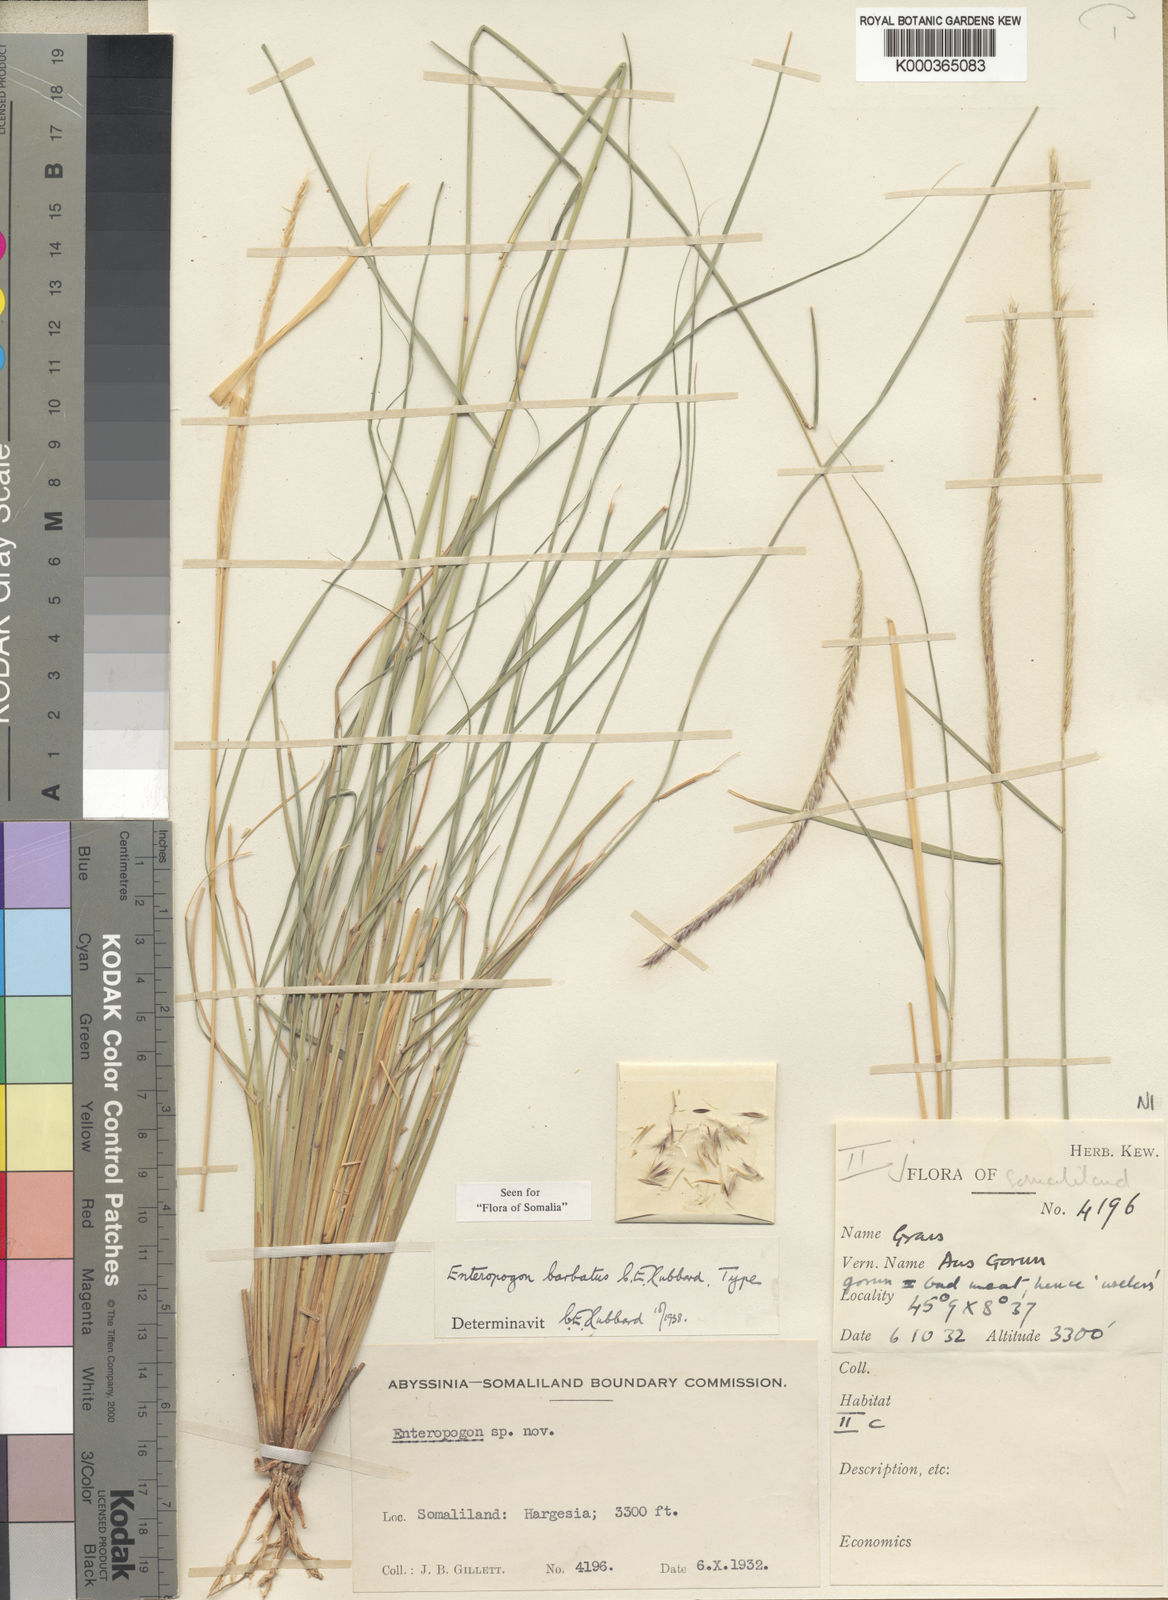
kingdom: Plantae
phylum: Tracheophyta
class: Liliopsida
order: Poales
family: Poaceae
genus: Enteropogon
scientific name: Enteropogon barbatus
